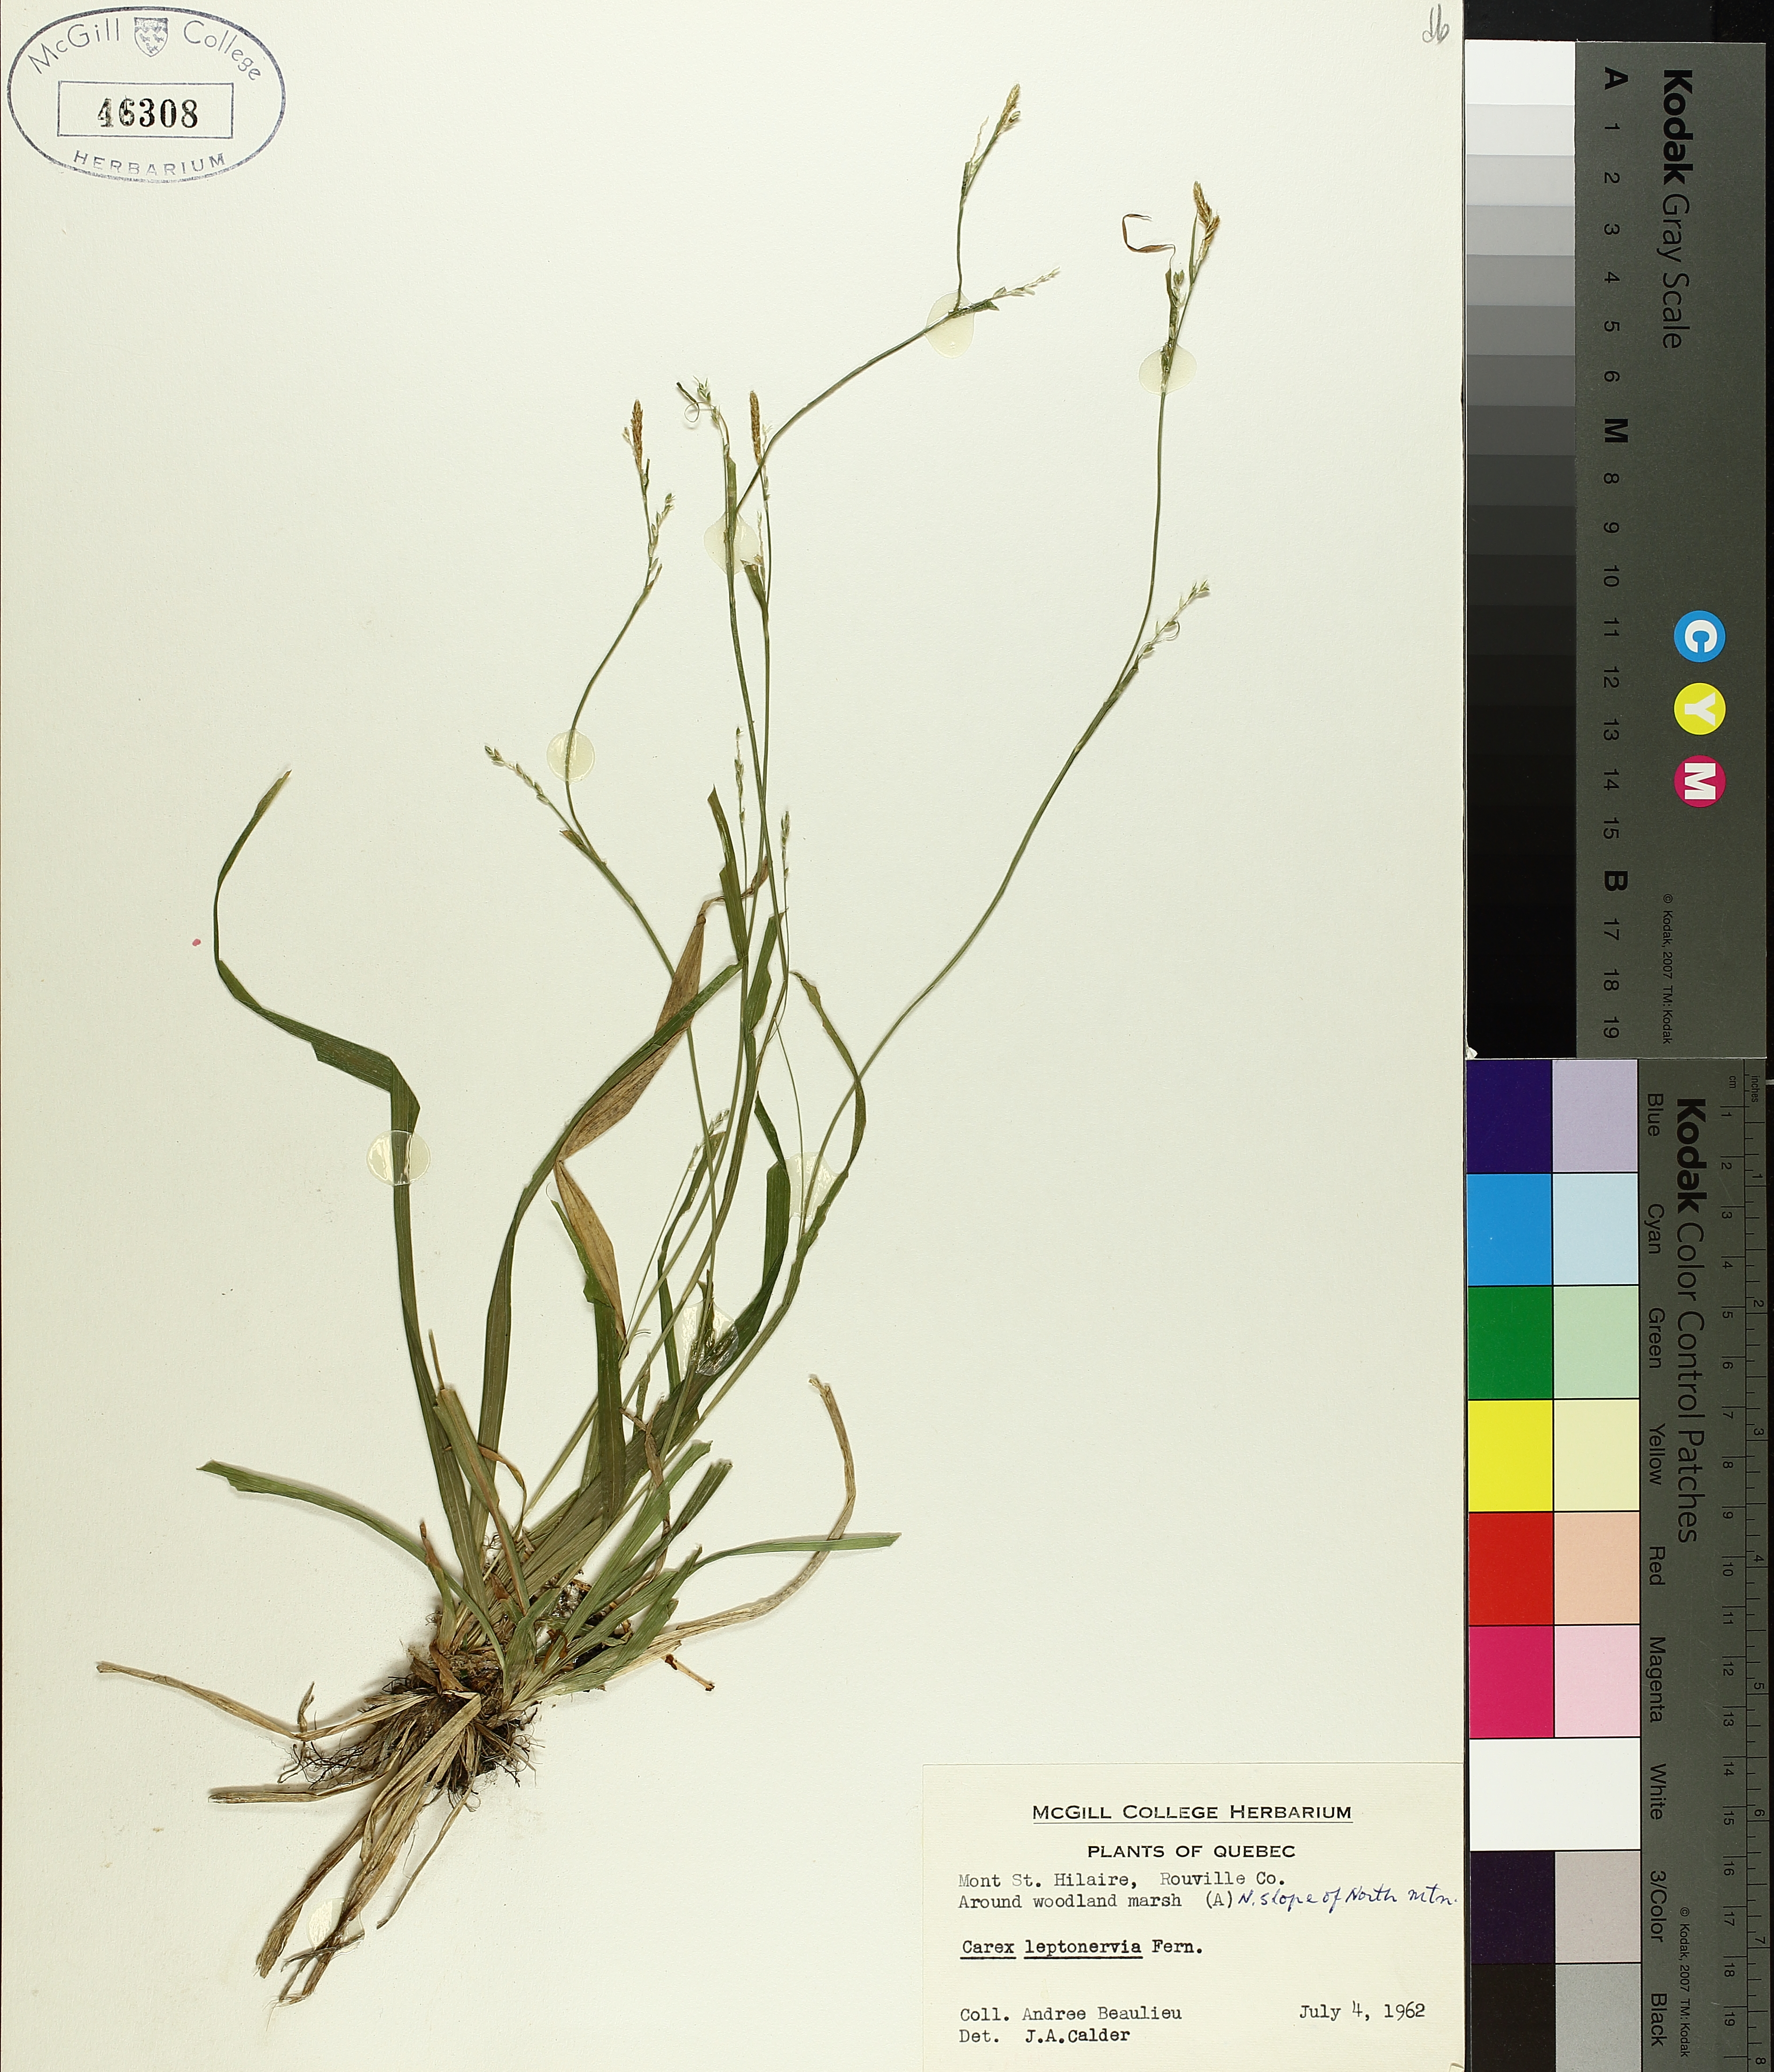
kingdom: Plantae
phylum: Tracheophyta
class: Liliopsida
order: Poales
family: Cyperaceae
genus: Carex
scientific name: Carex leptonervia
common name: Few-nerved wood sedge
